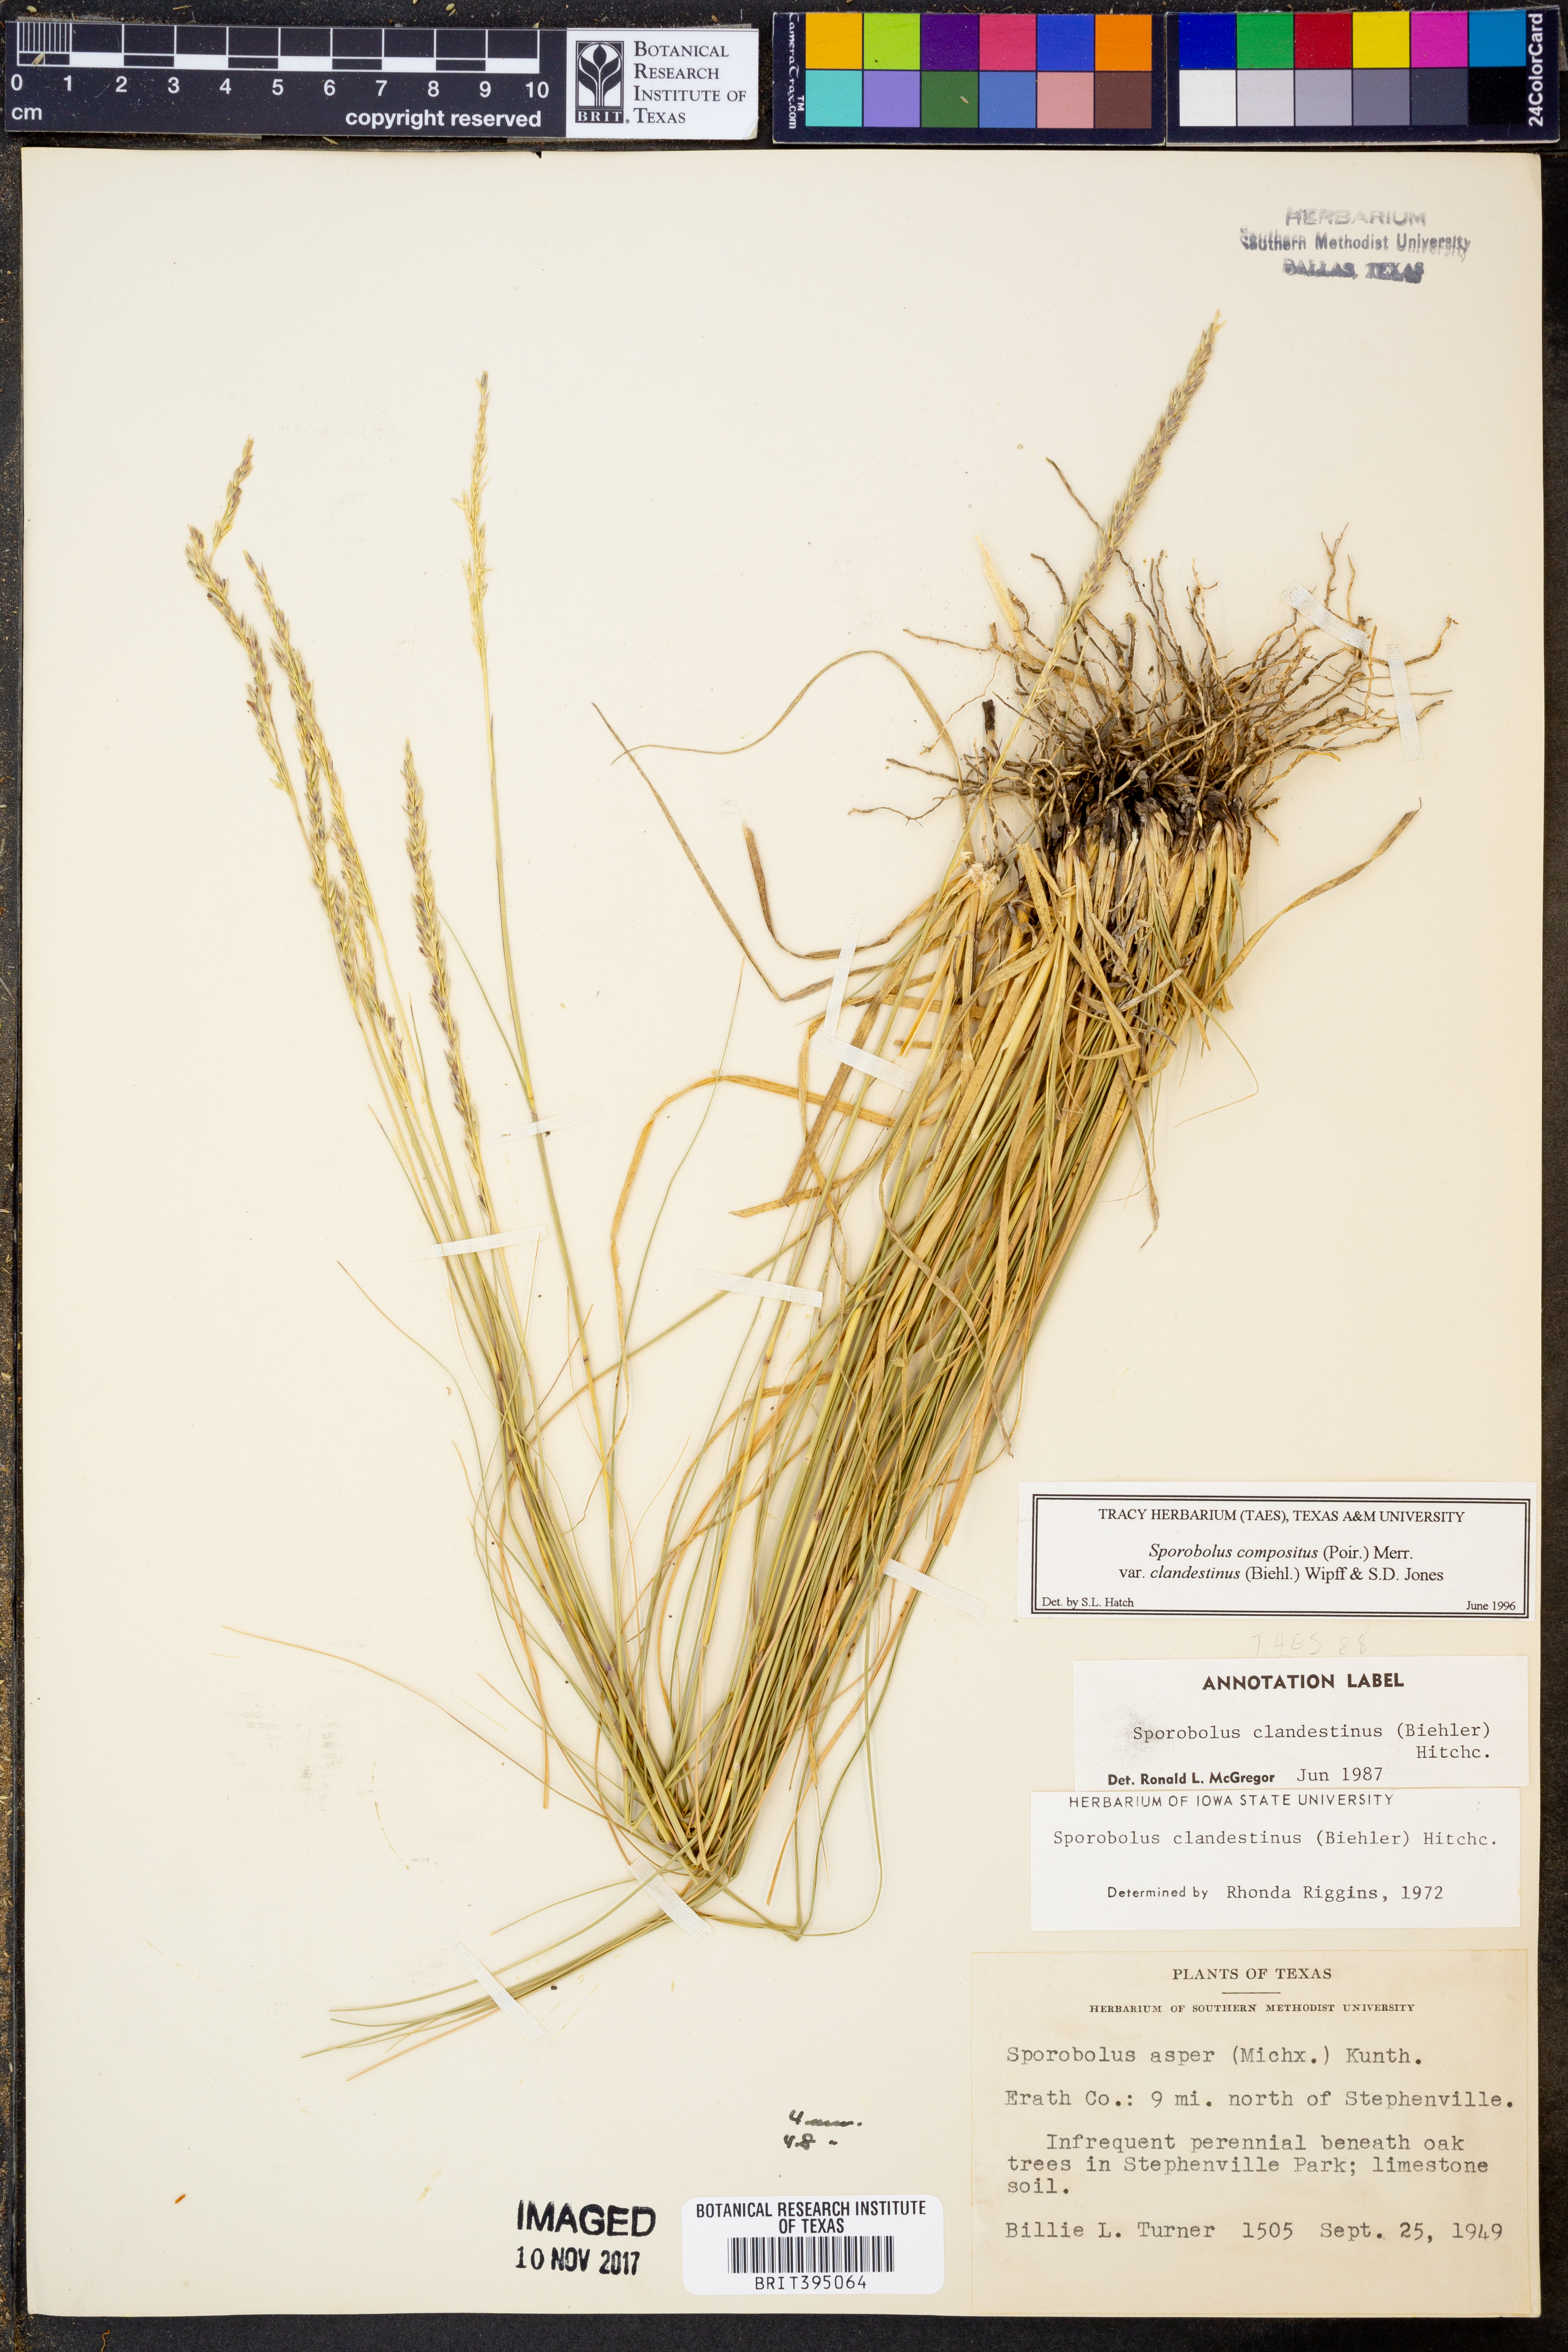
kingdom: Plantae
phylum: Tracheophyta
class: Liliopsida
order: Poales
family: Poaceae
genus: Sporobolus
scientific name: Sporobolus clandestinus
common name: Hidden dropseed
